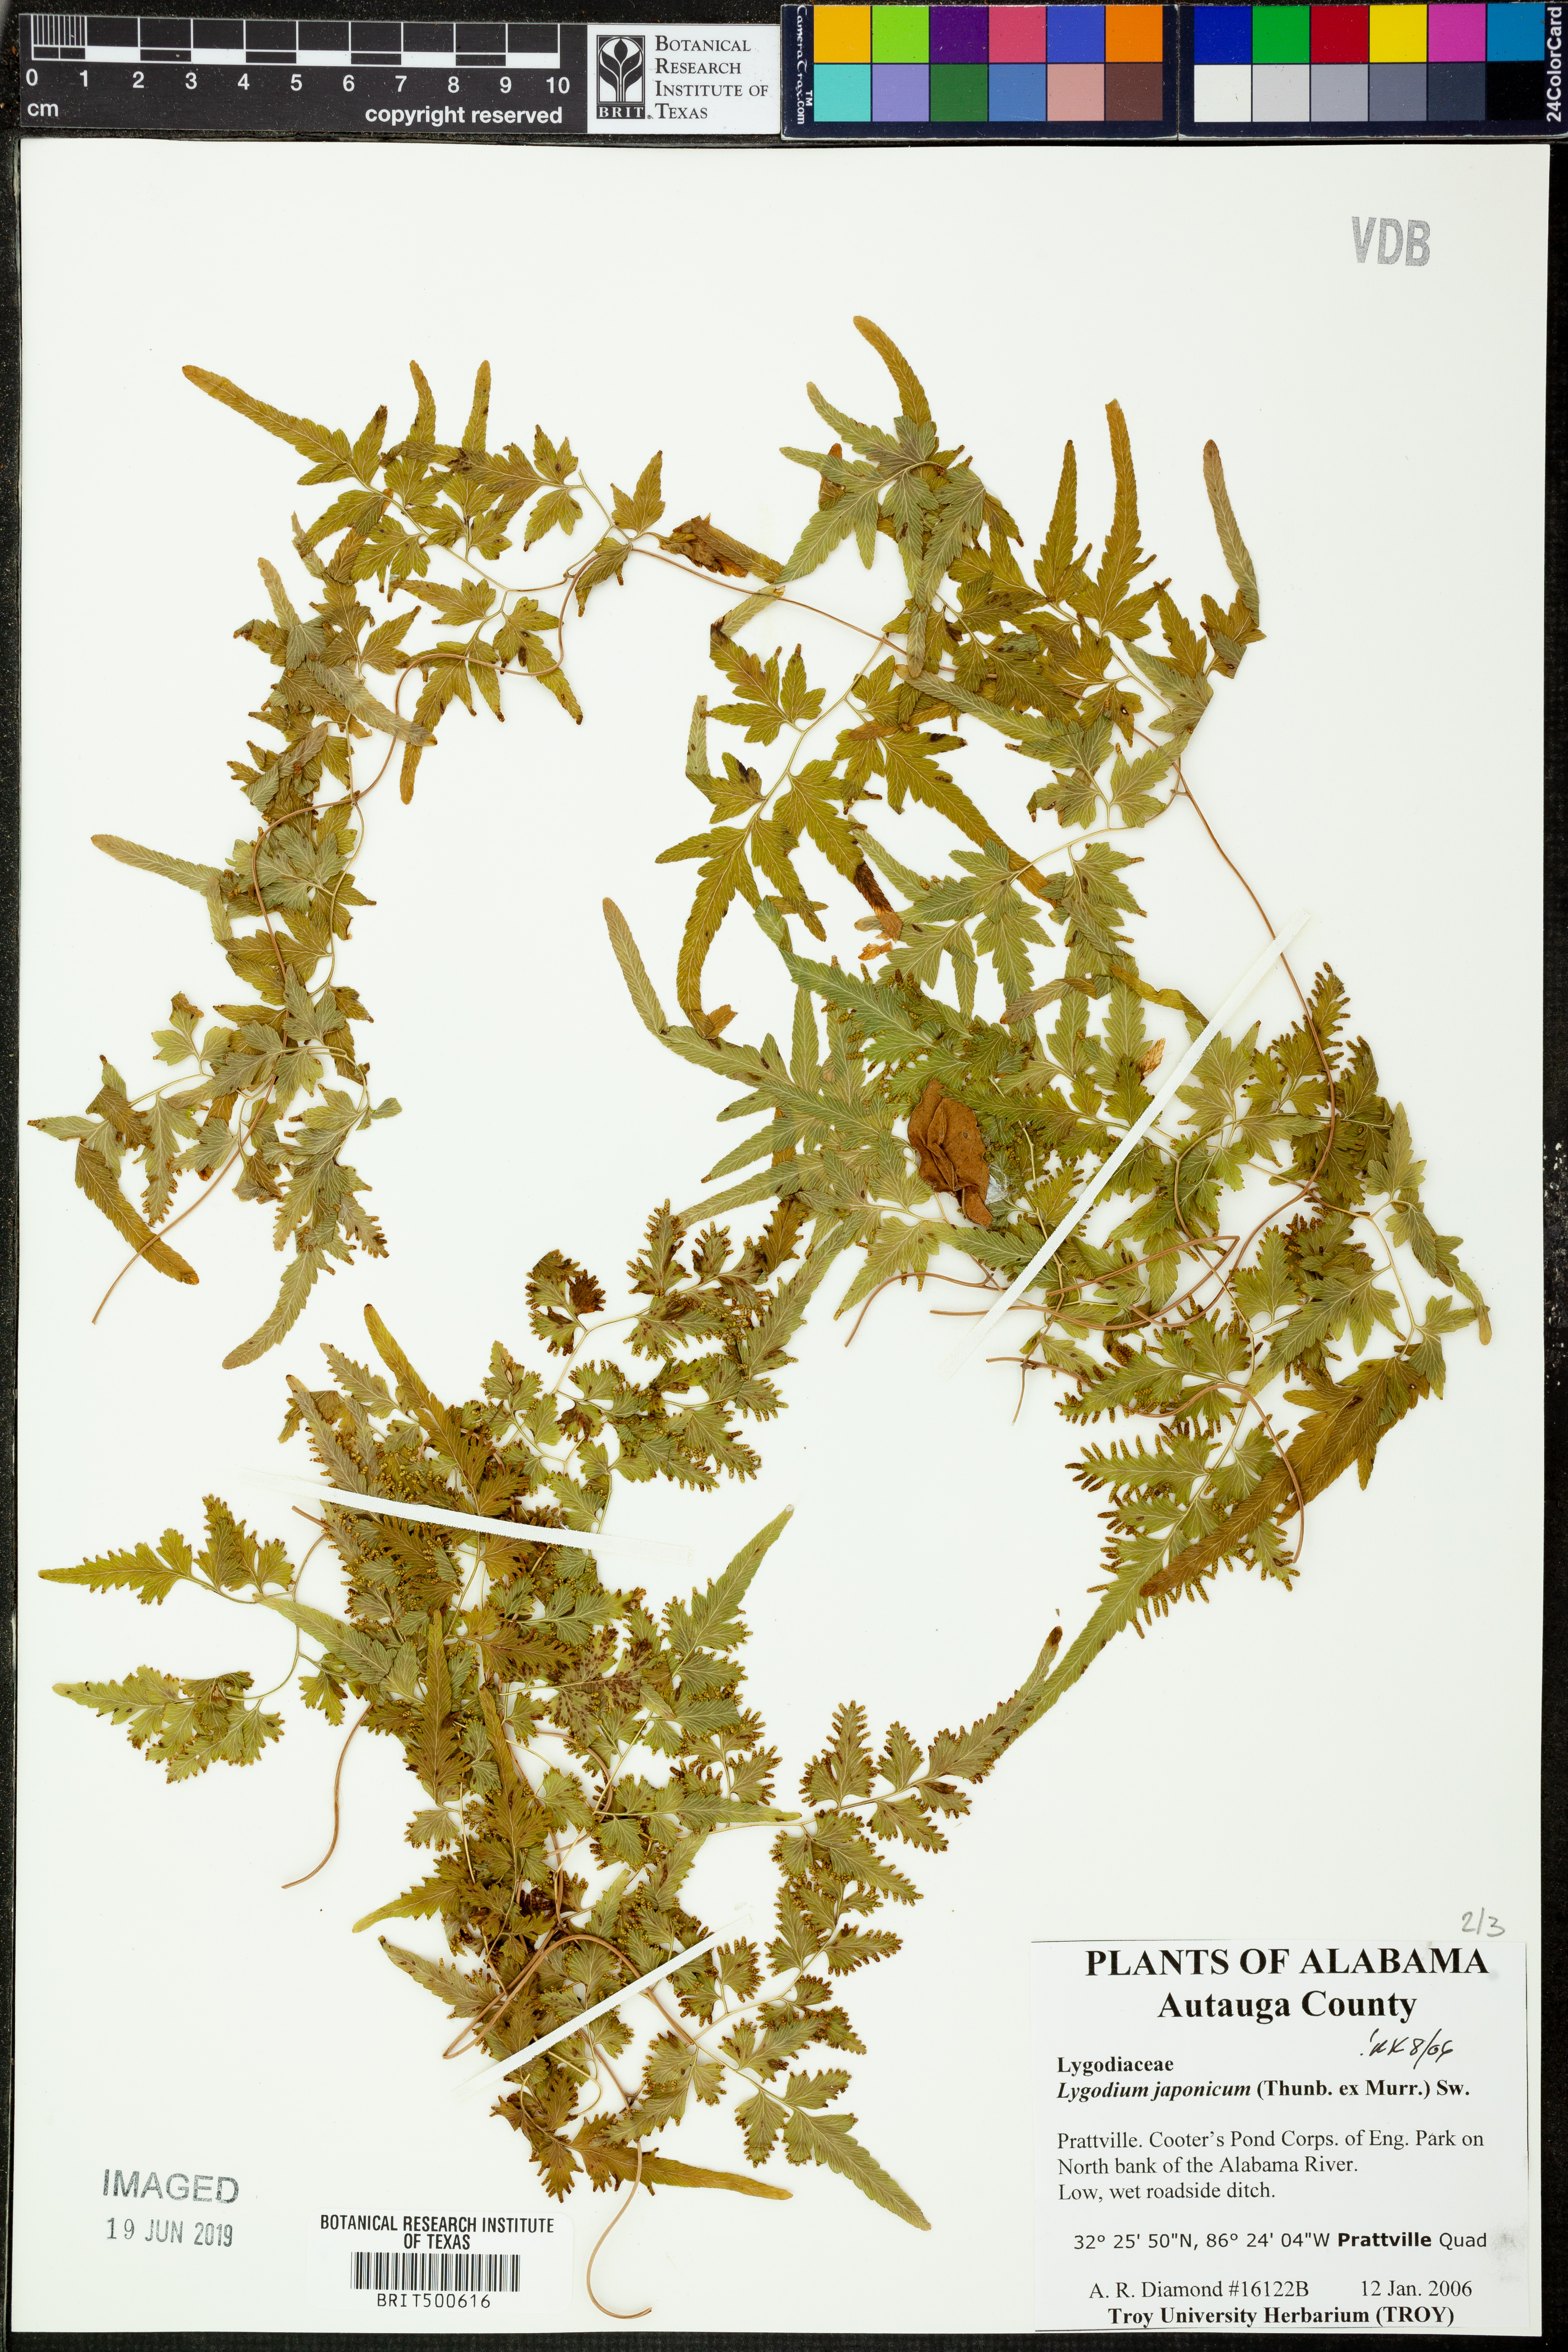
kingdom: Plantae
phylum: Tracheophyta
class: Polypodiopsida
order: Schizaeales
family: Lygodiaceae
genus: Lygodium
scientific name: Lygodium japonicum
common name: Japanese climbing fern
